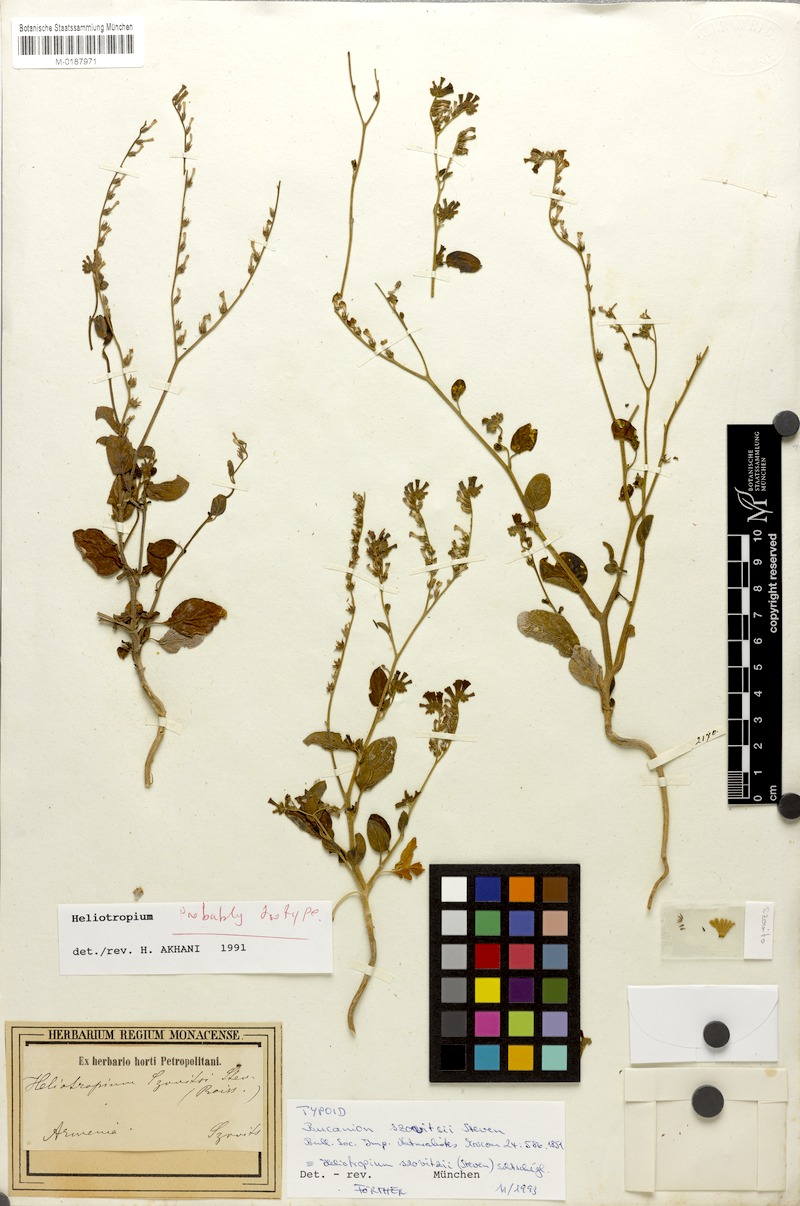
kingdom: Plantae
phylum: Tracheophyta
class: Magnoliopsida
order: Boraginales
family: Heliotropiaceae
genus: Heliotropium
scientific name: Heliotropium szovitsii
